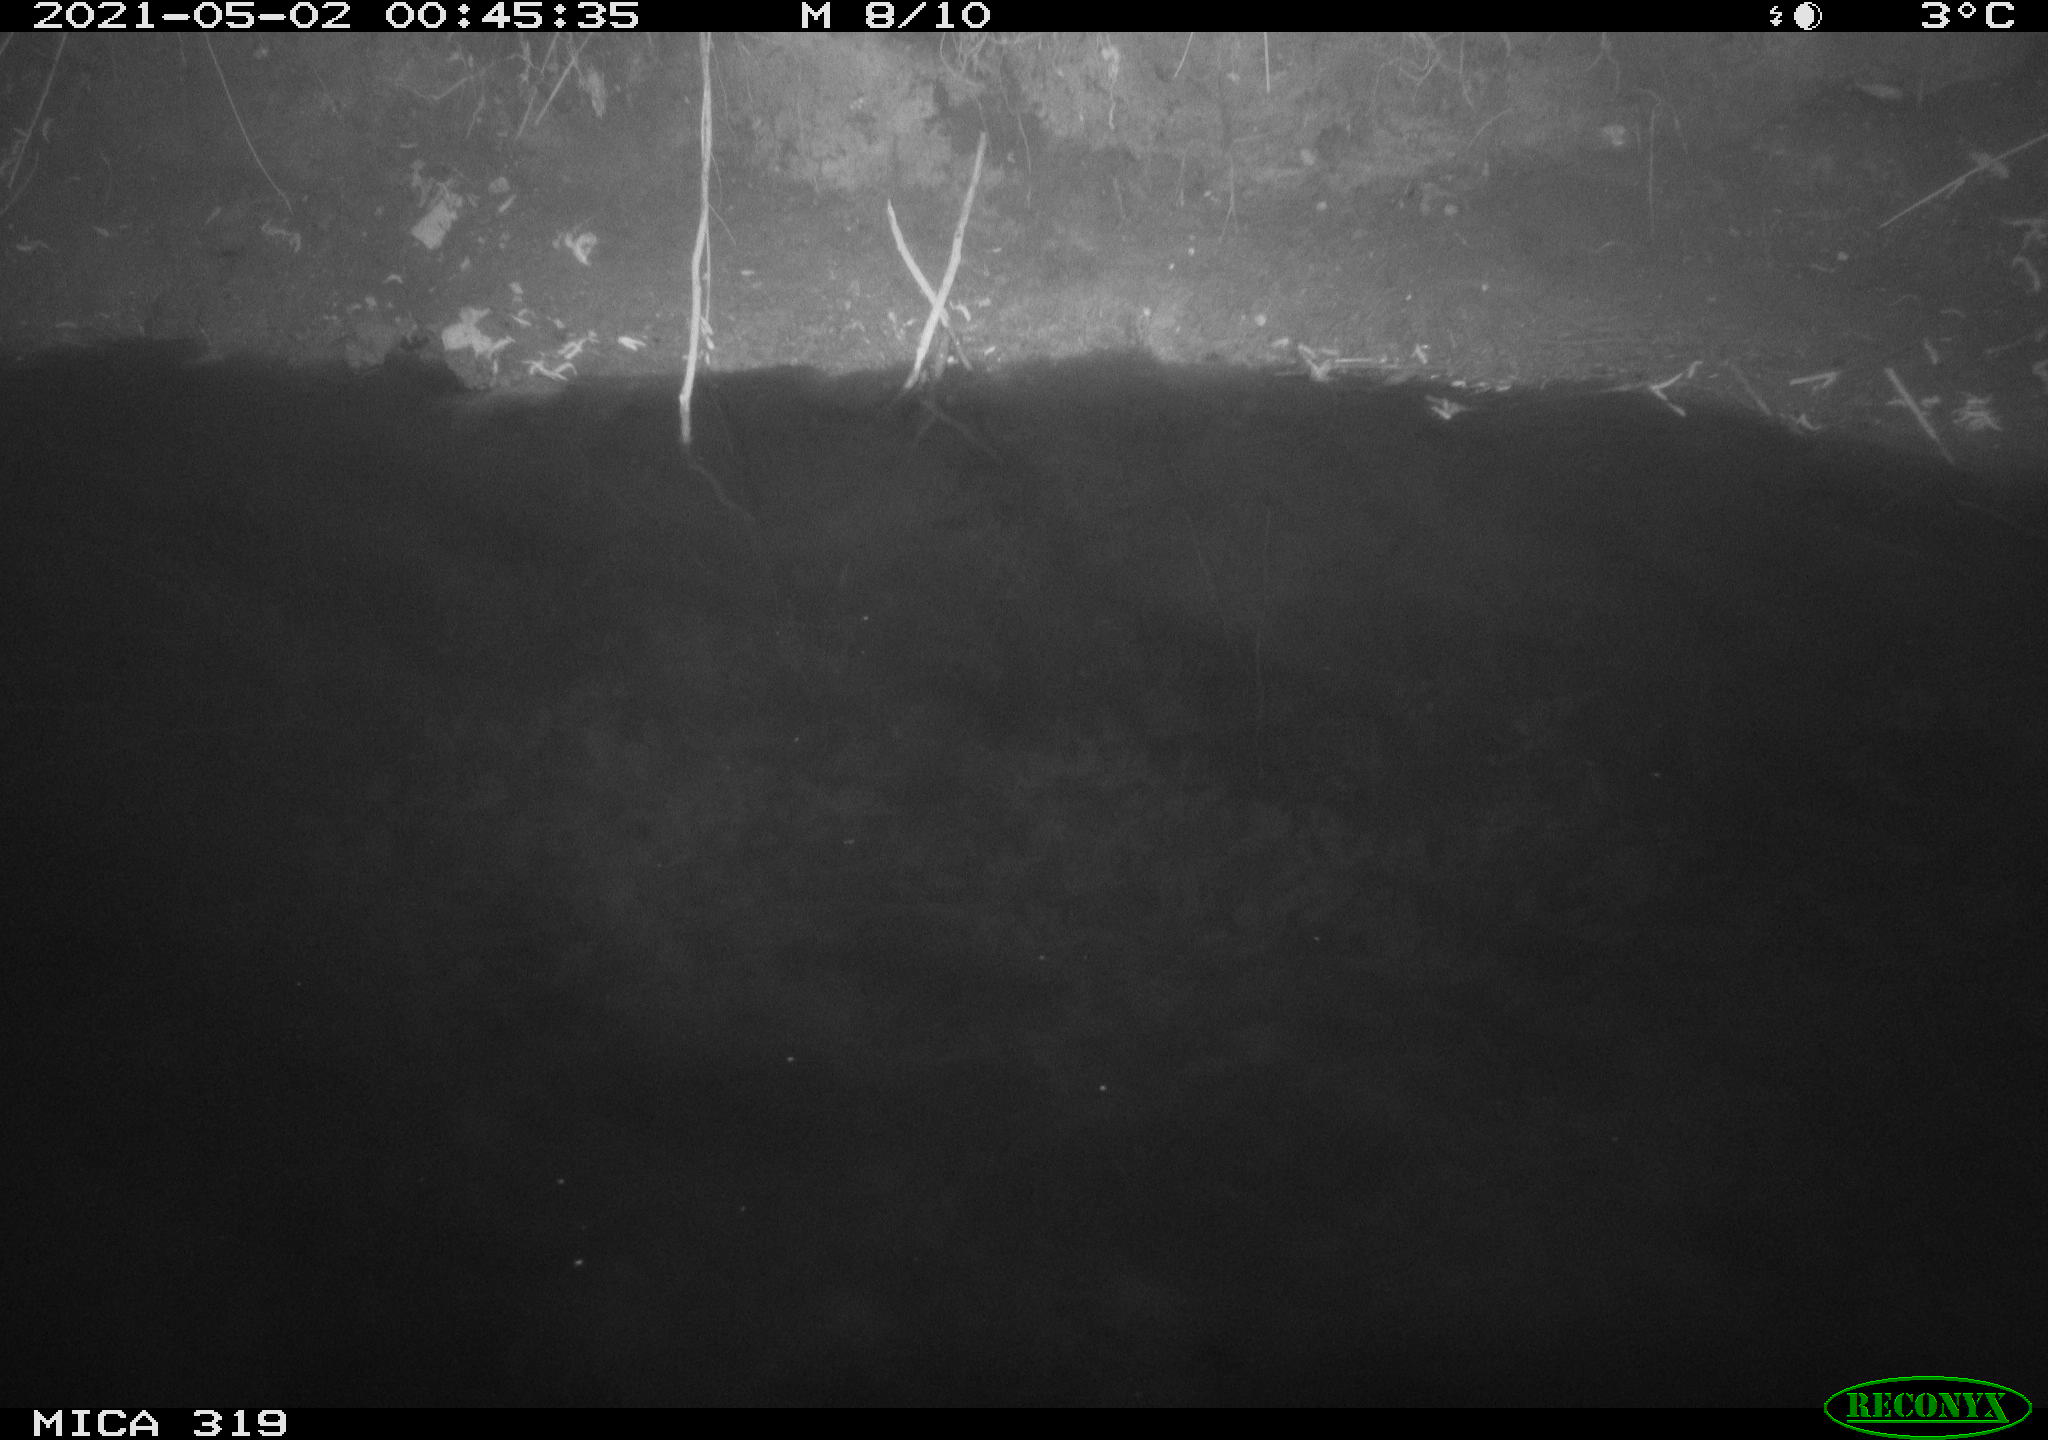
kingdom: Animalia
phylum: Chordata
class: Aves
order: Anseriformes
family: Anatidae
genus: Anas
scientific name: Anas platyrhynchos
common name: Mallard
